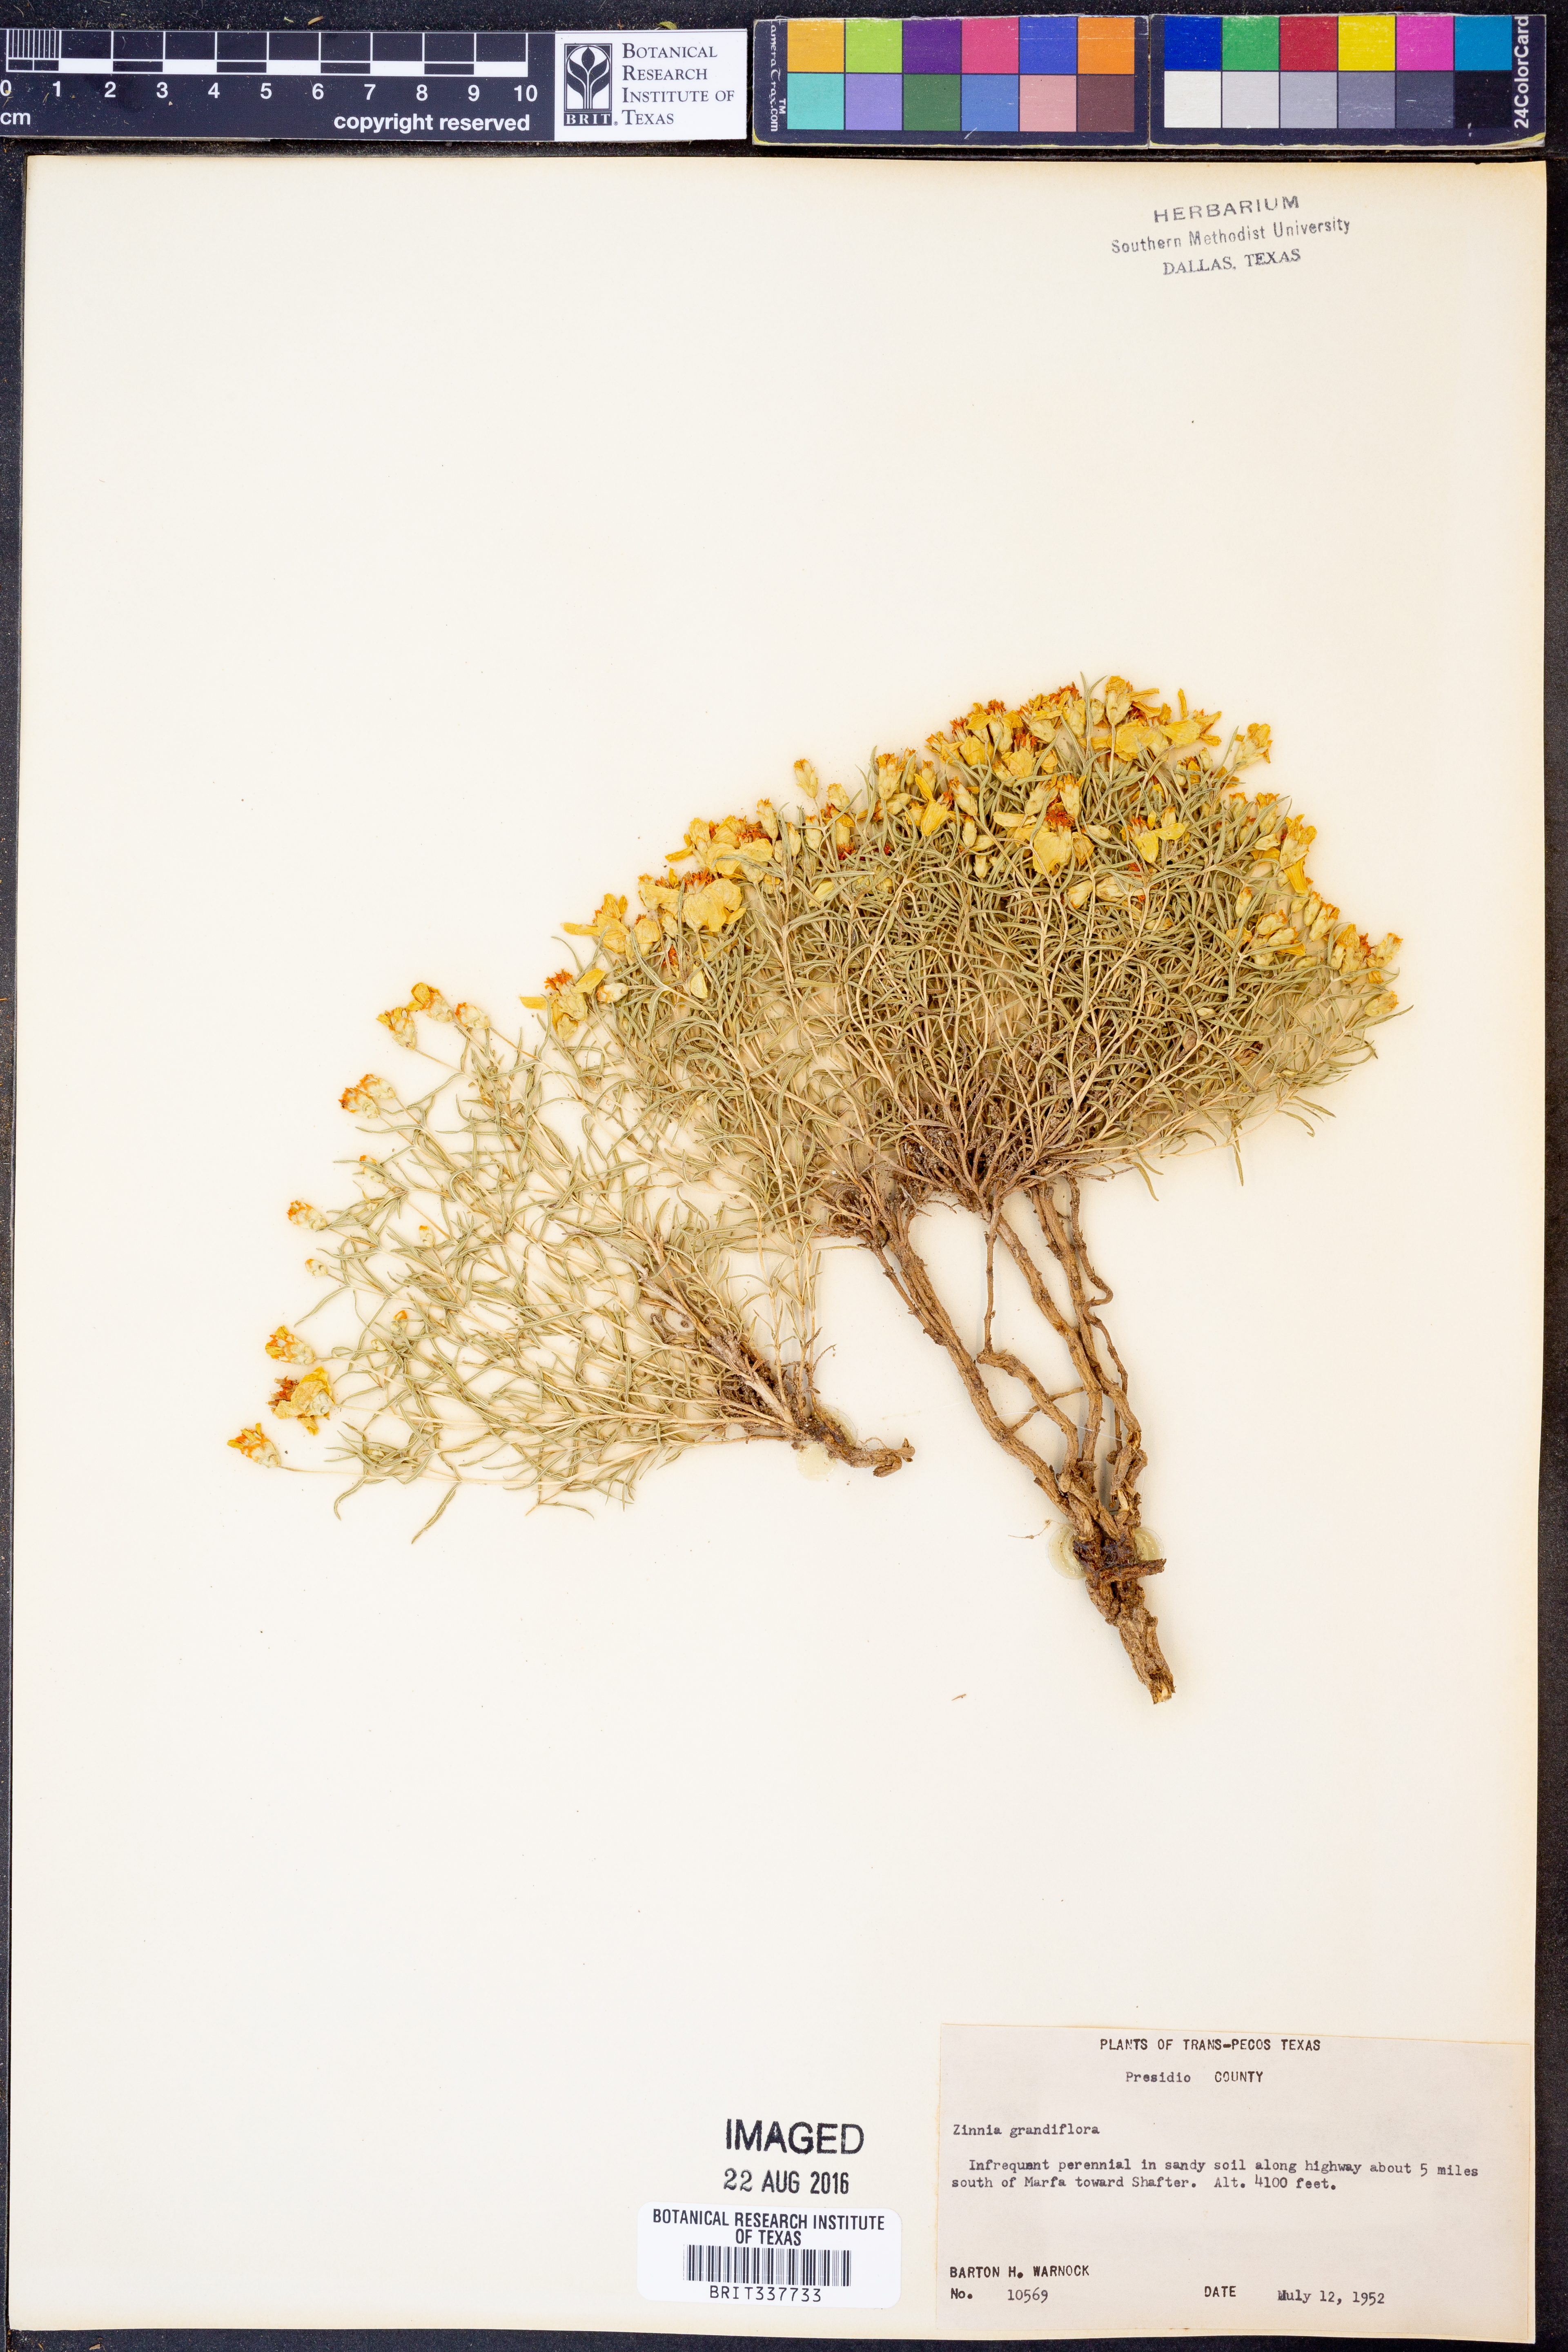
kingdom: Plantae
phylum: Tracheophyta
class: Magnoliopsida
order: Asterales
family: Asteraceae
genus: Zinnia
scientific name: Zinnia grandiflora
